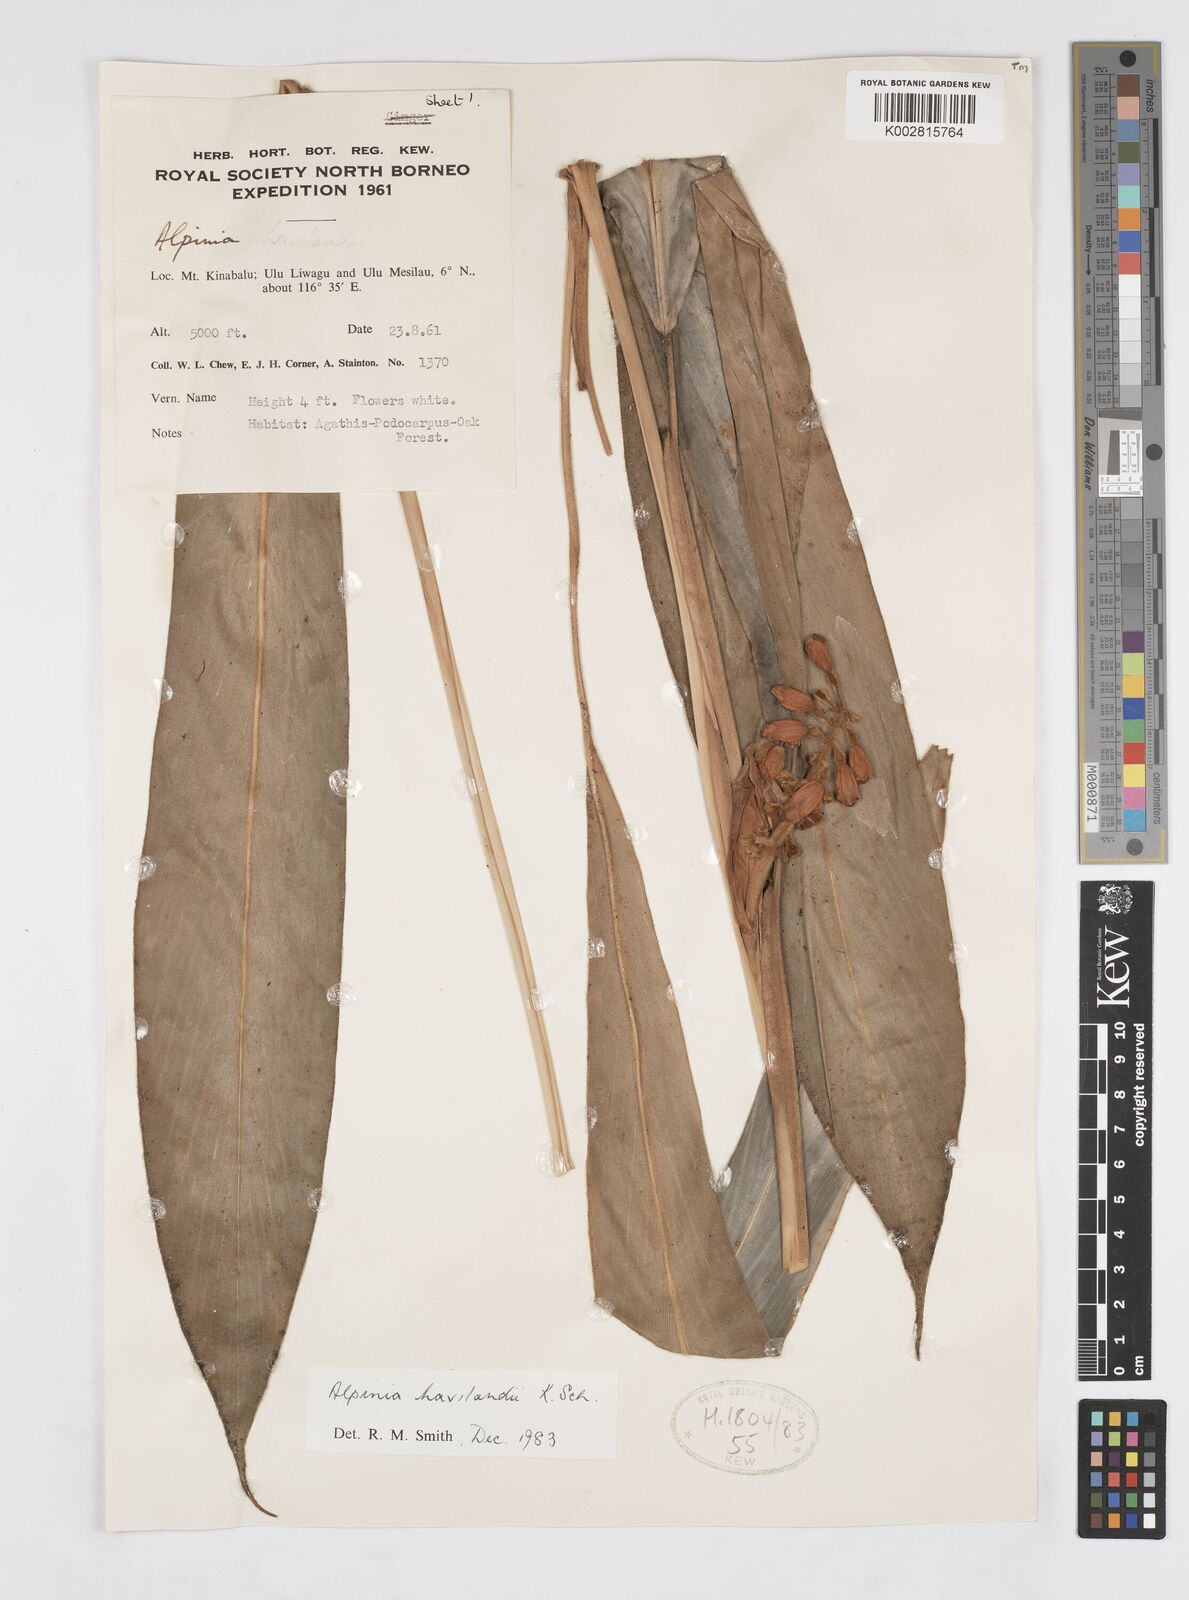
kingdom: Plantae
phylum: Tracheophyta
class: Liliopsida
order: Zingiberales
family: Zingiberaceae
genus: Alpinia
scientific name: Alpinia havilandii
